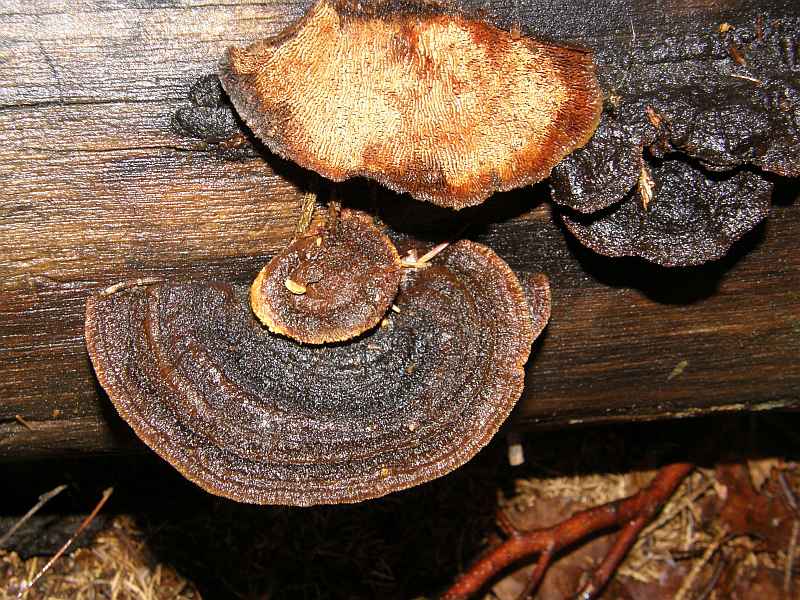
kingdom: Fungi
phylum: Basidiomycota
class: Agaricomycetes
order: Gloeophyllales
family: Gloeophyllaceae
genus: Gloeophyllum
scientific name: Gloeophyllum sepiarium
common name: fyrre-korkhat
